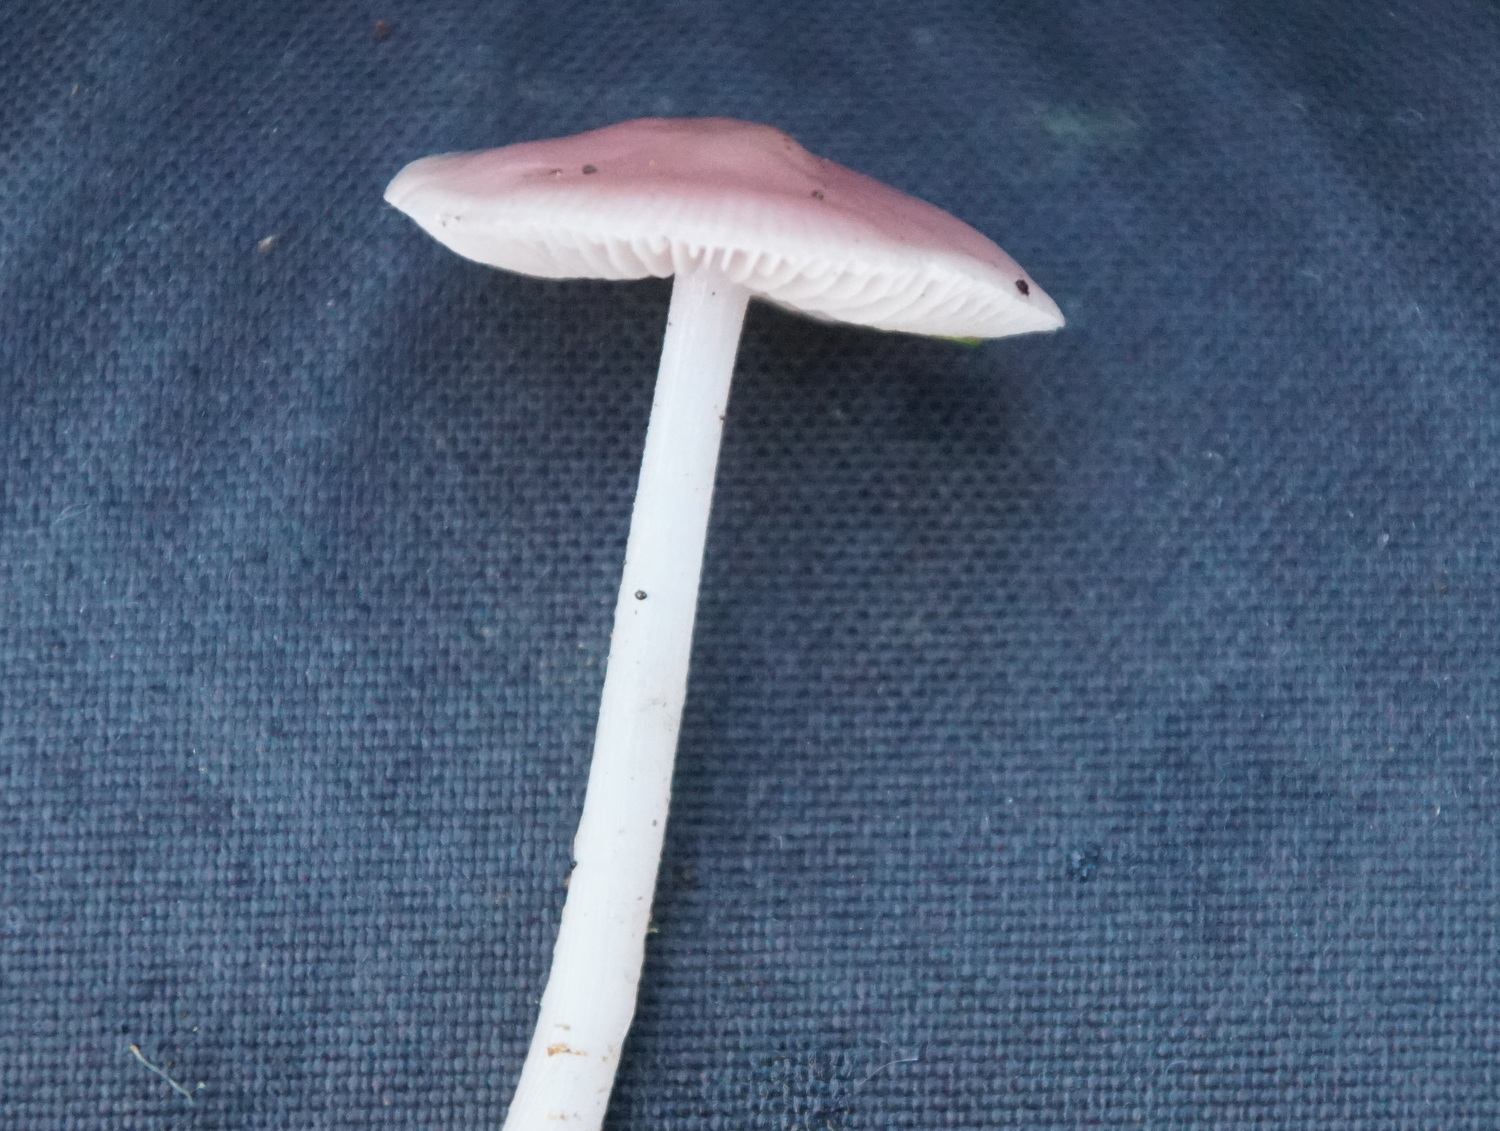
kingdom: Fungi
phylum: Basidiomycota
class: Agaricomycetes
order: Agaricales
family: Mycenaceae
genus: Mycena
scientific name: Mycena rosea
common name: rosa huesvamp
